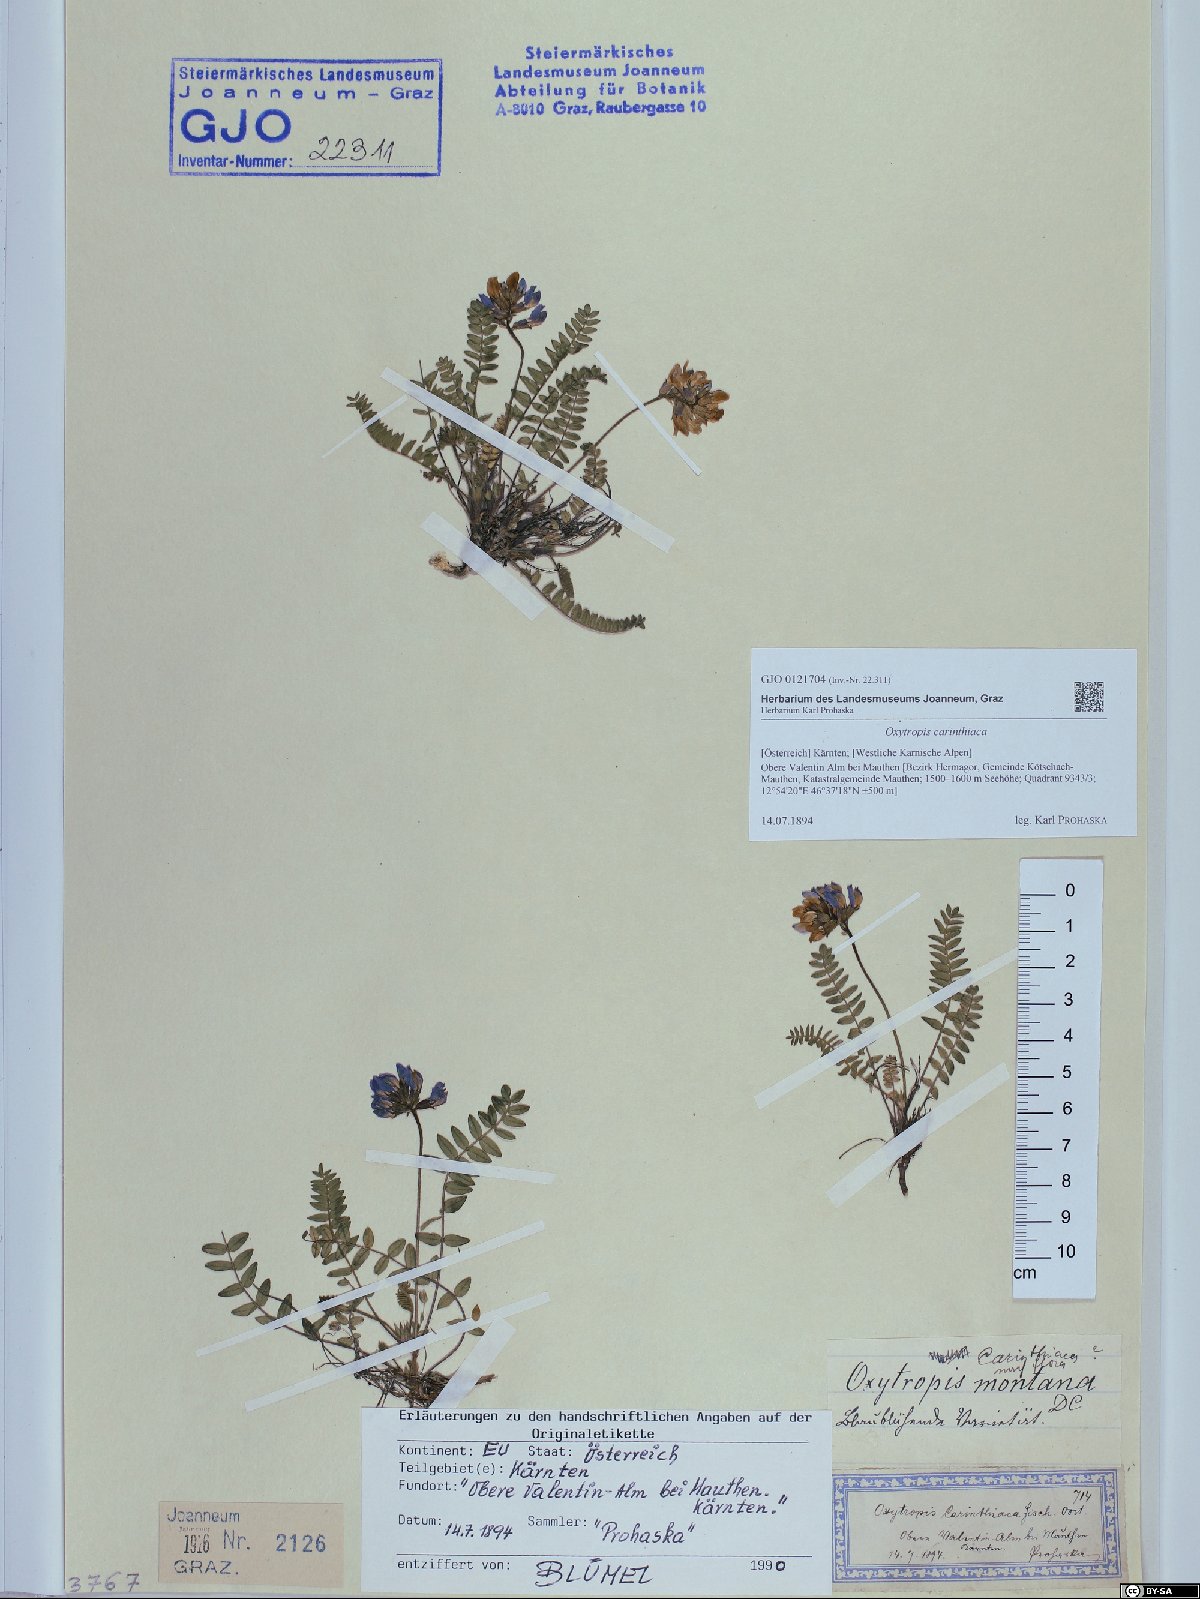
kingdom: Plantae
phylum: Tracheophyta
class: Magnoliopsida
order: Fabales
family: Fabaceae
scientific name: Fabaceae
